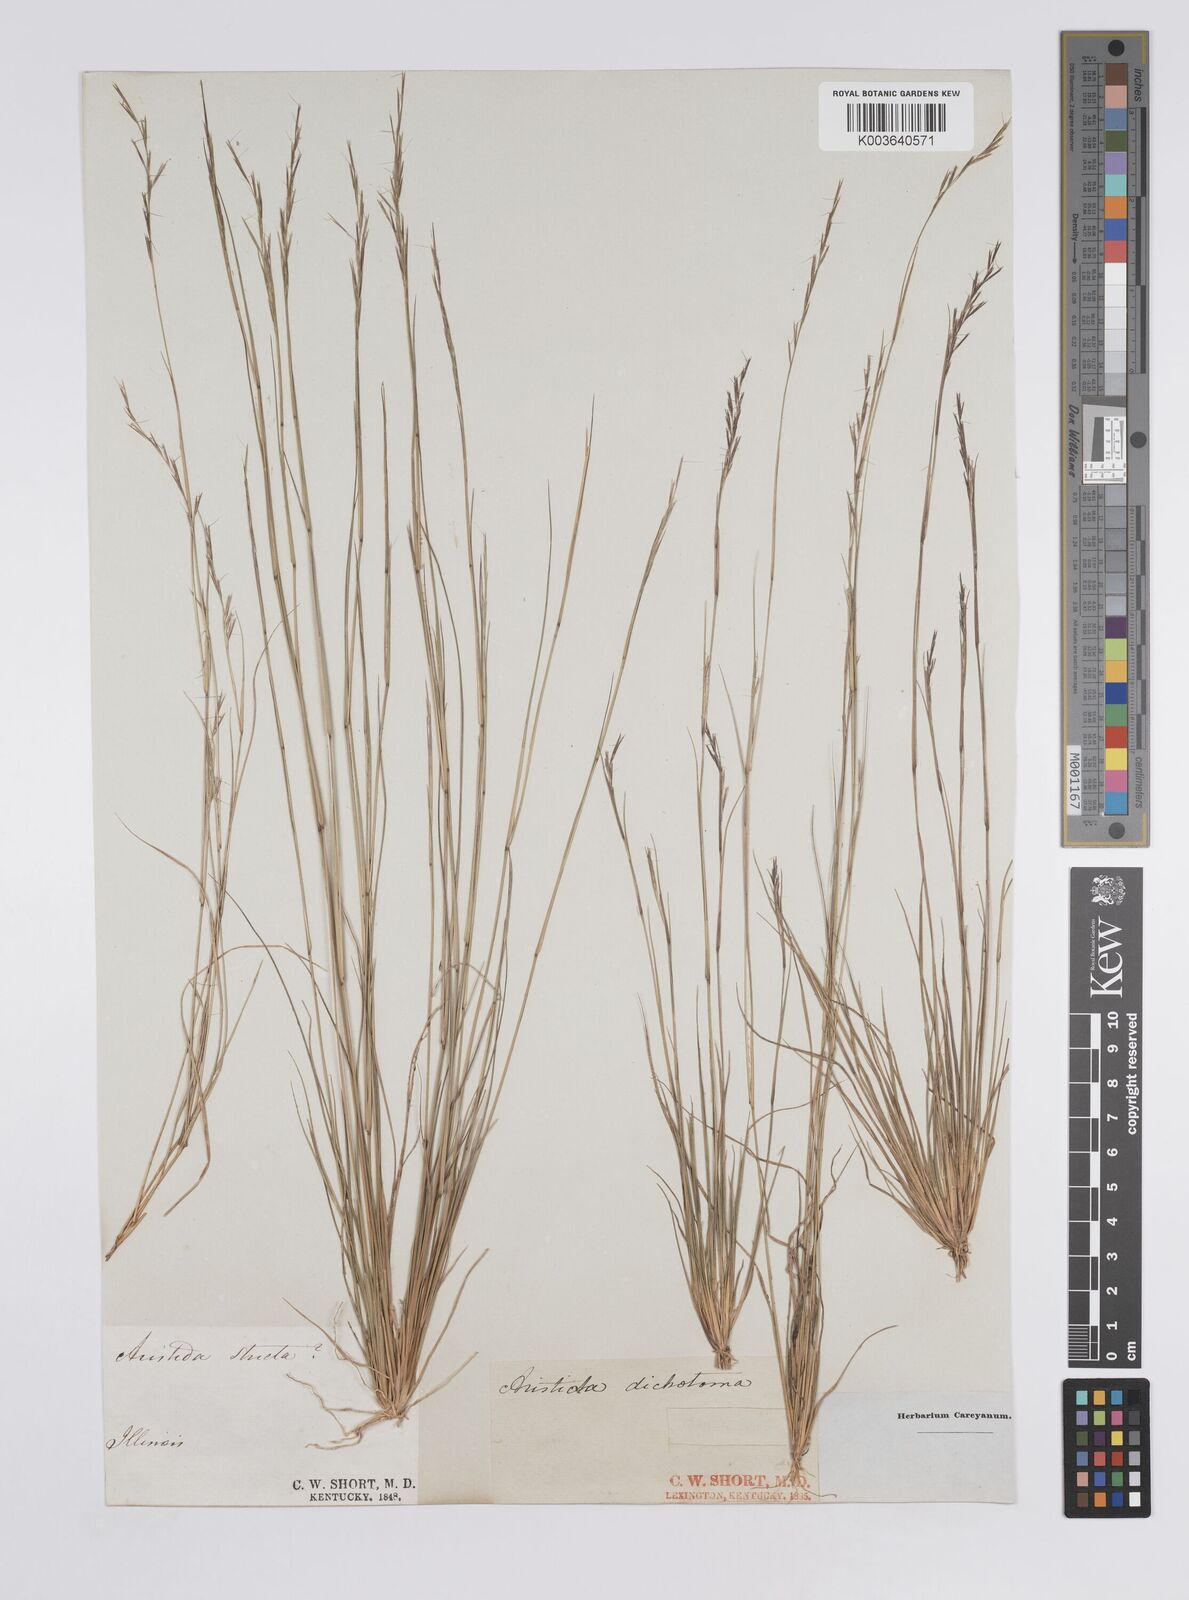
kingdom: Plantae
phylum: Tracheophyta
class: Liliopsida
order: Poales
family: Poaceae
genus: Aristida
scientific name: Aristida dichotoma
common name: Churchmouse three-awn
